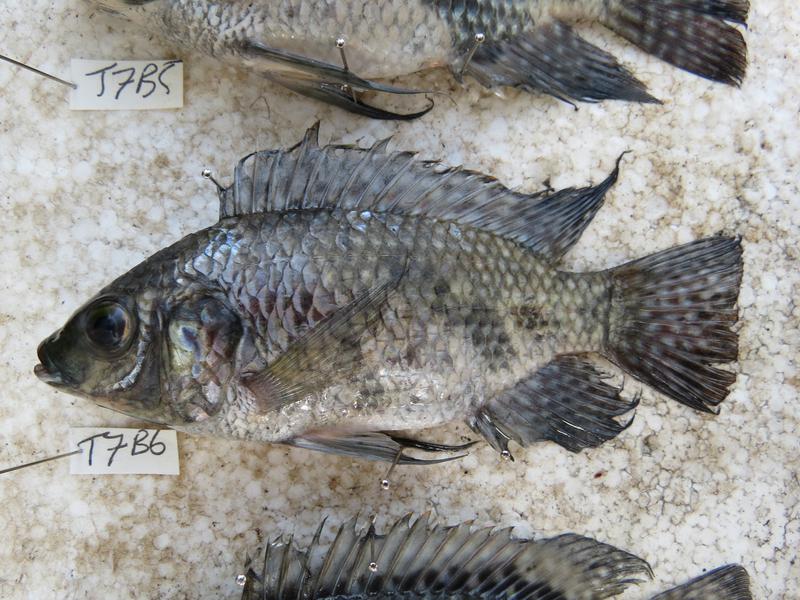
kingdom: Animalia
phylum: Chordata
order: Perciformes
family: Cichlidae
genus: Oreochromis
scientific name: Oreochromis leucostictus
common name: Blue spotted tilapia
